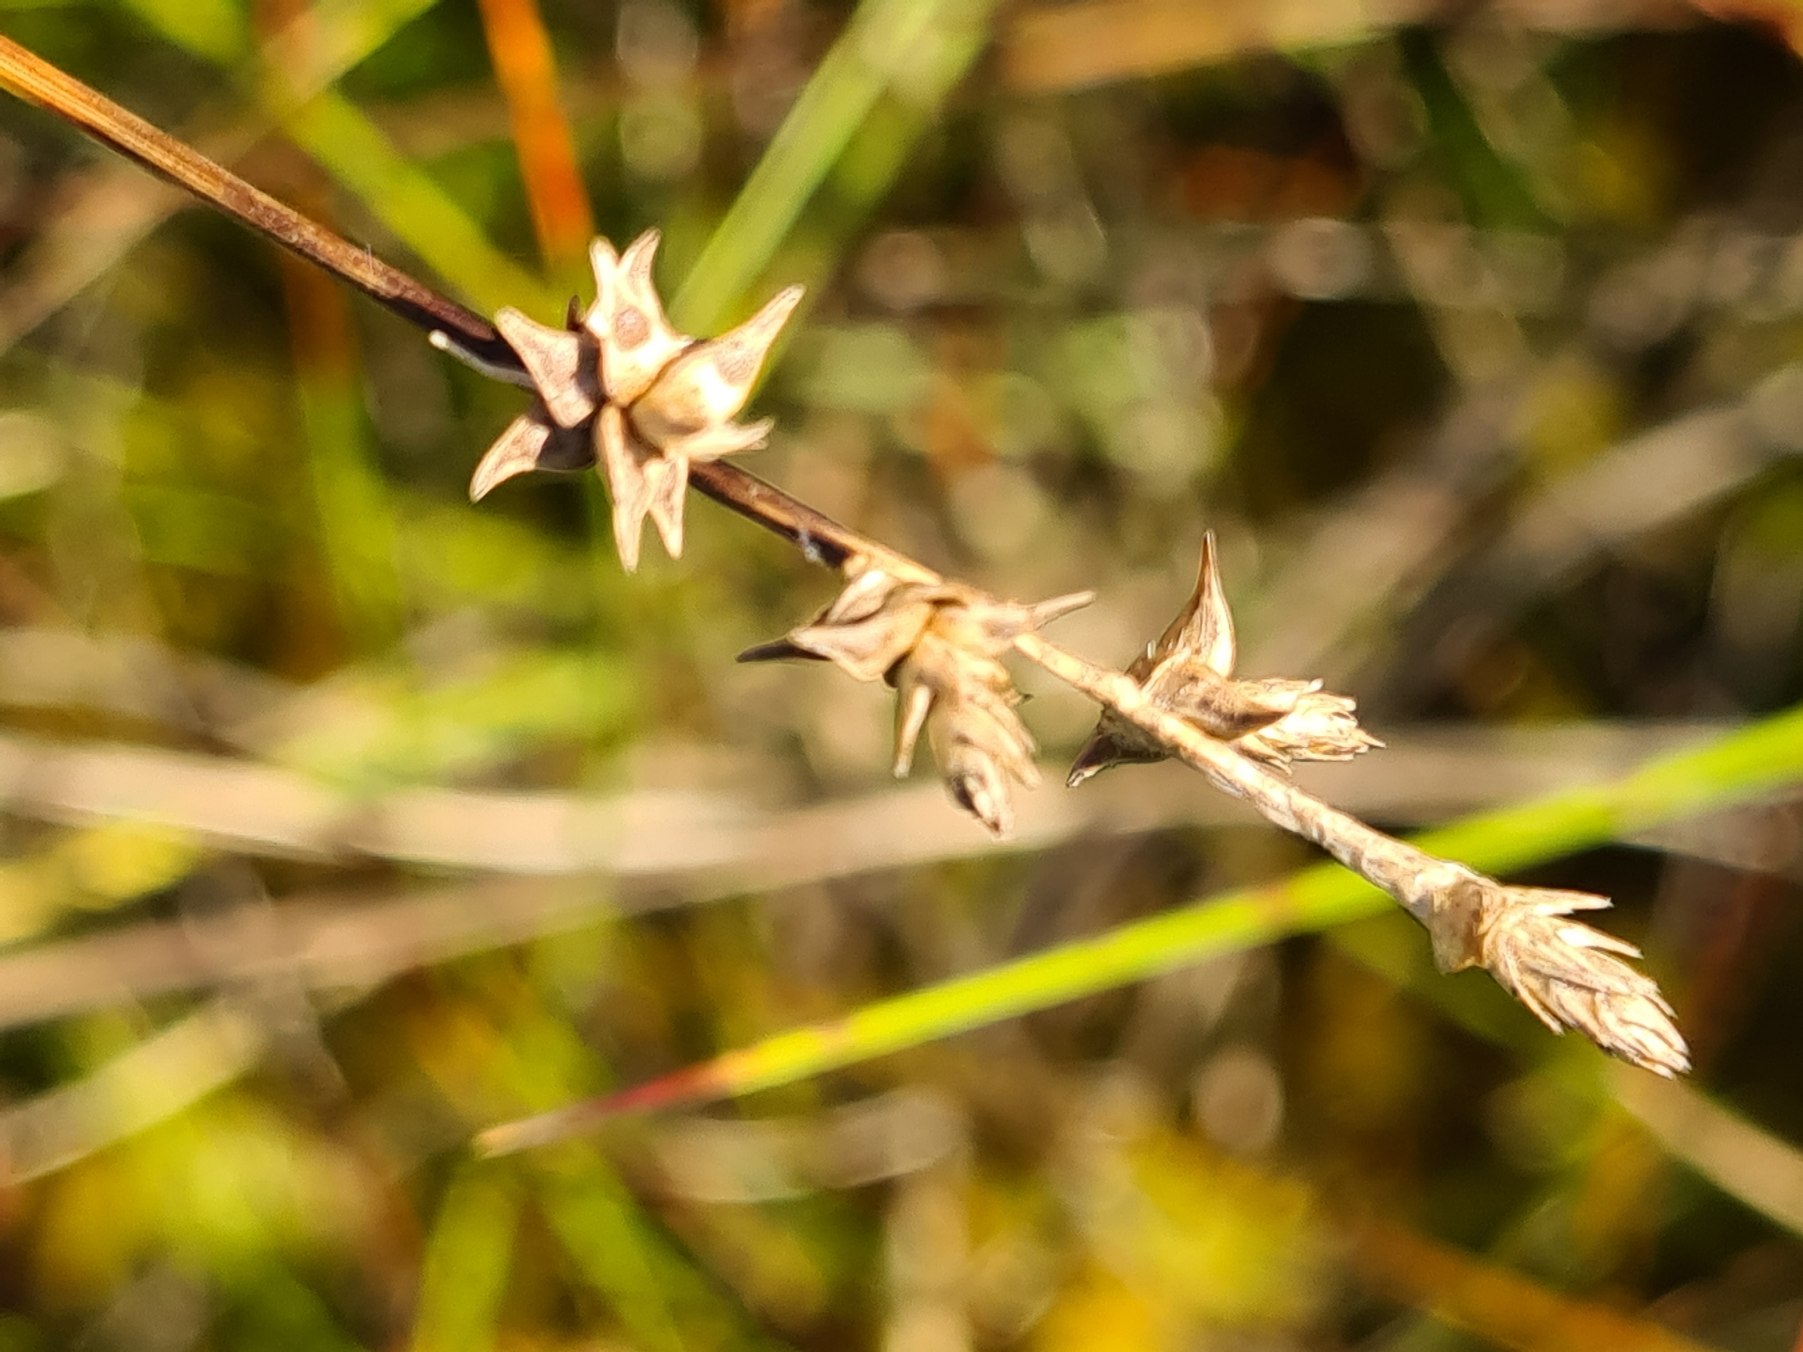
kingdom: Plantae
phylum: Tracheophyta
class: Liliopsida
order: Poales
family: Cyperaceae
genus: Carex
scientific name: Carex echinata
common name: Stjerne-star
